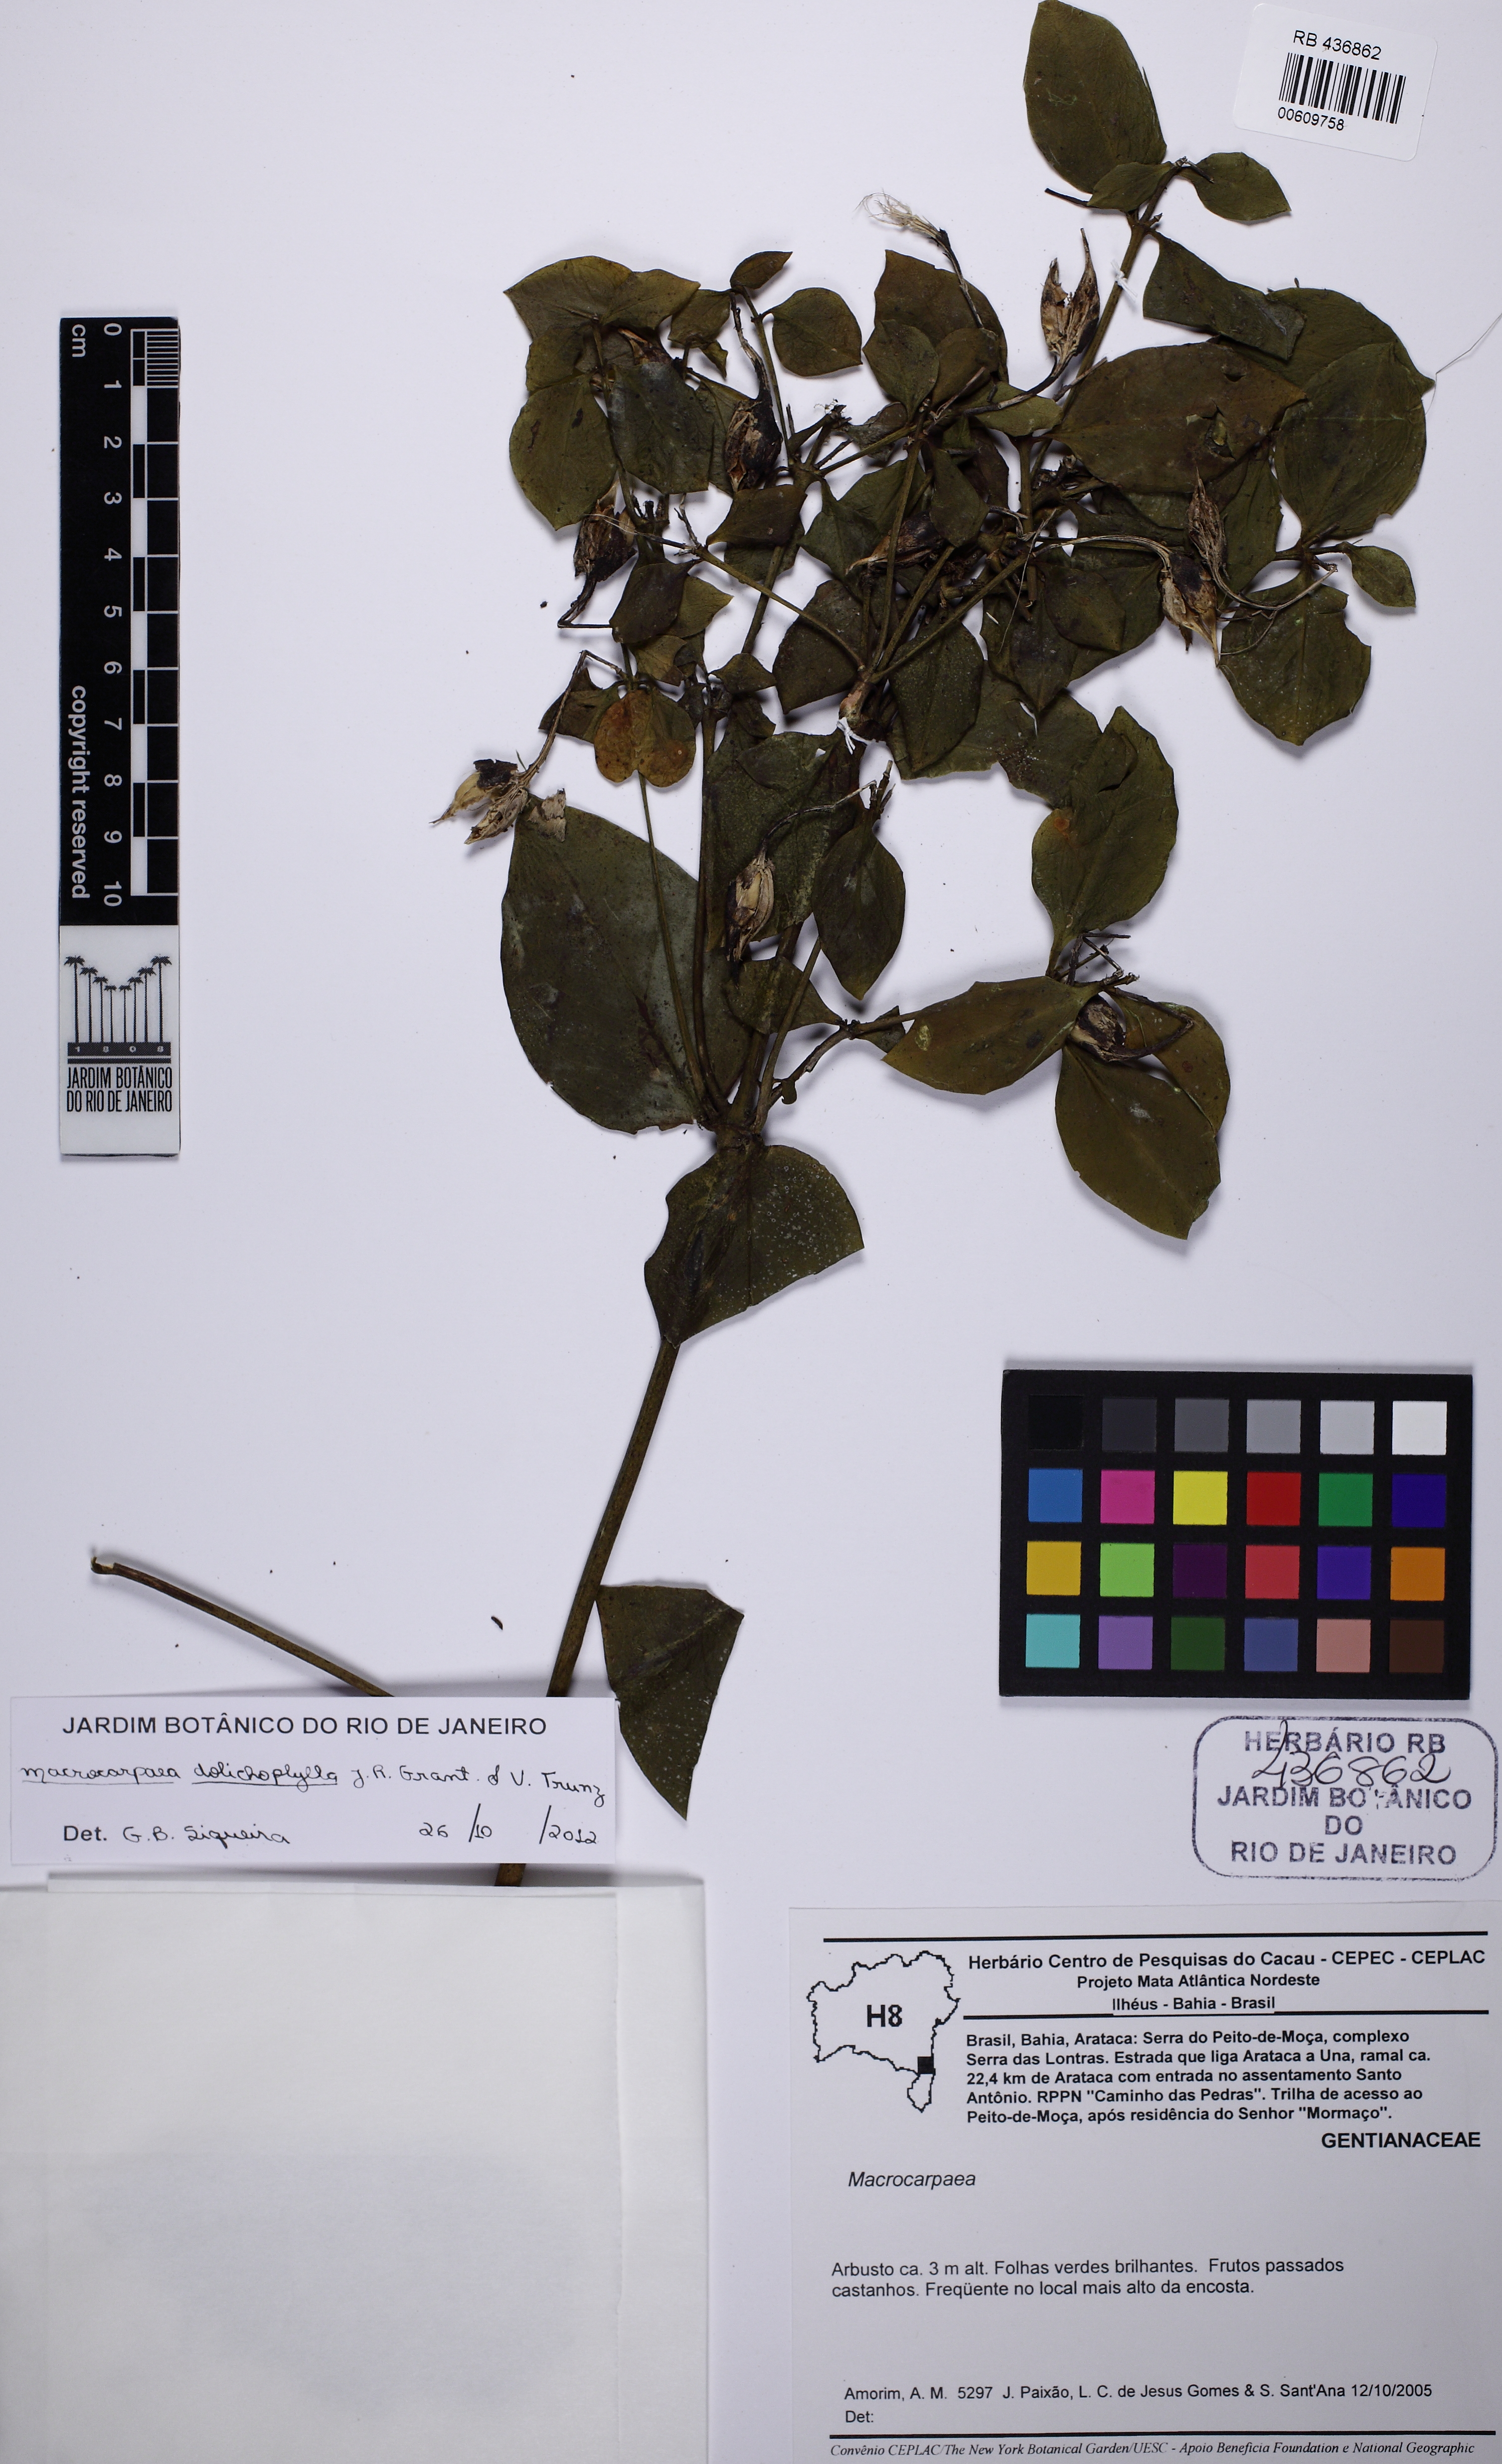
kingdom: Plantae
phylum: Tracheophyta
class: Magnoliopsida
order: Gentianales
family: Gentianaceae
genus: Macrocarpaea
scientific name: Macrocarpaea dolichophylla
